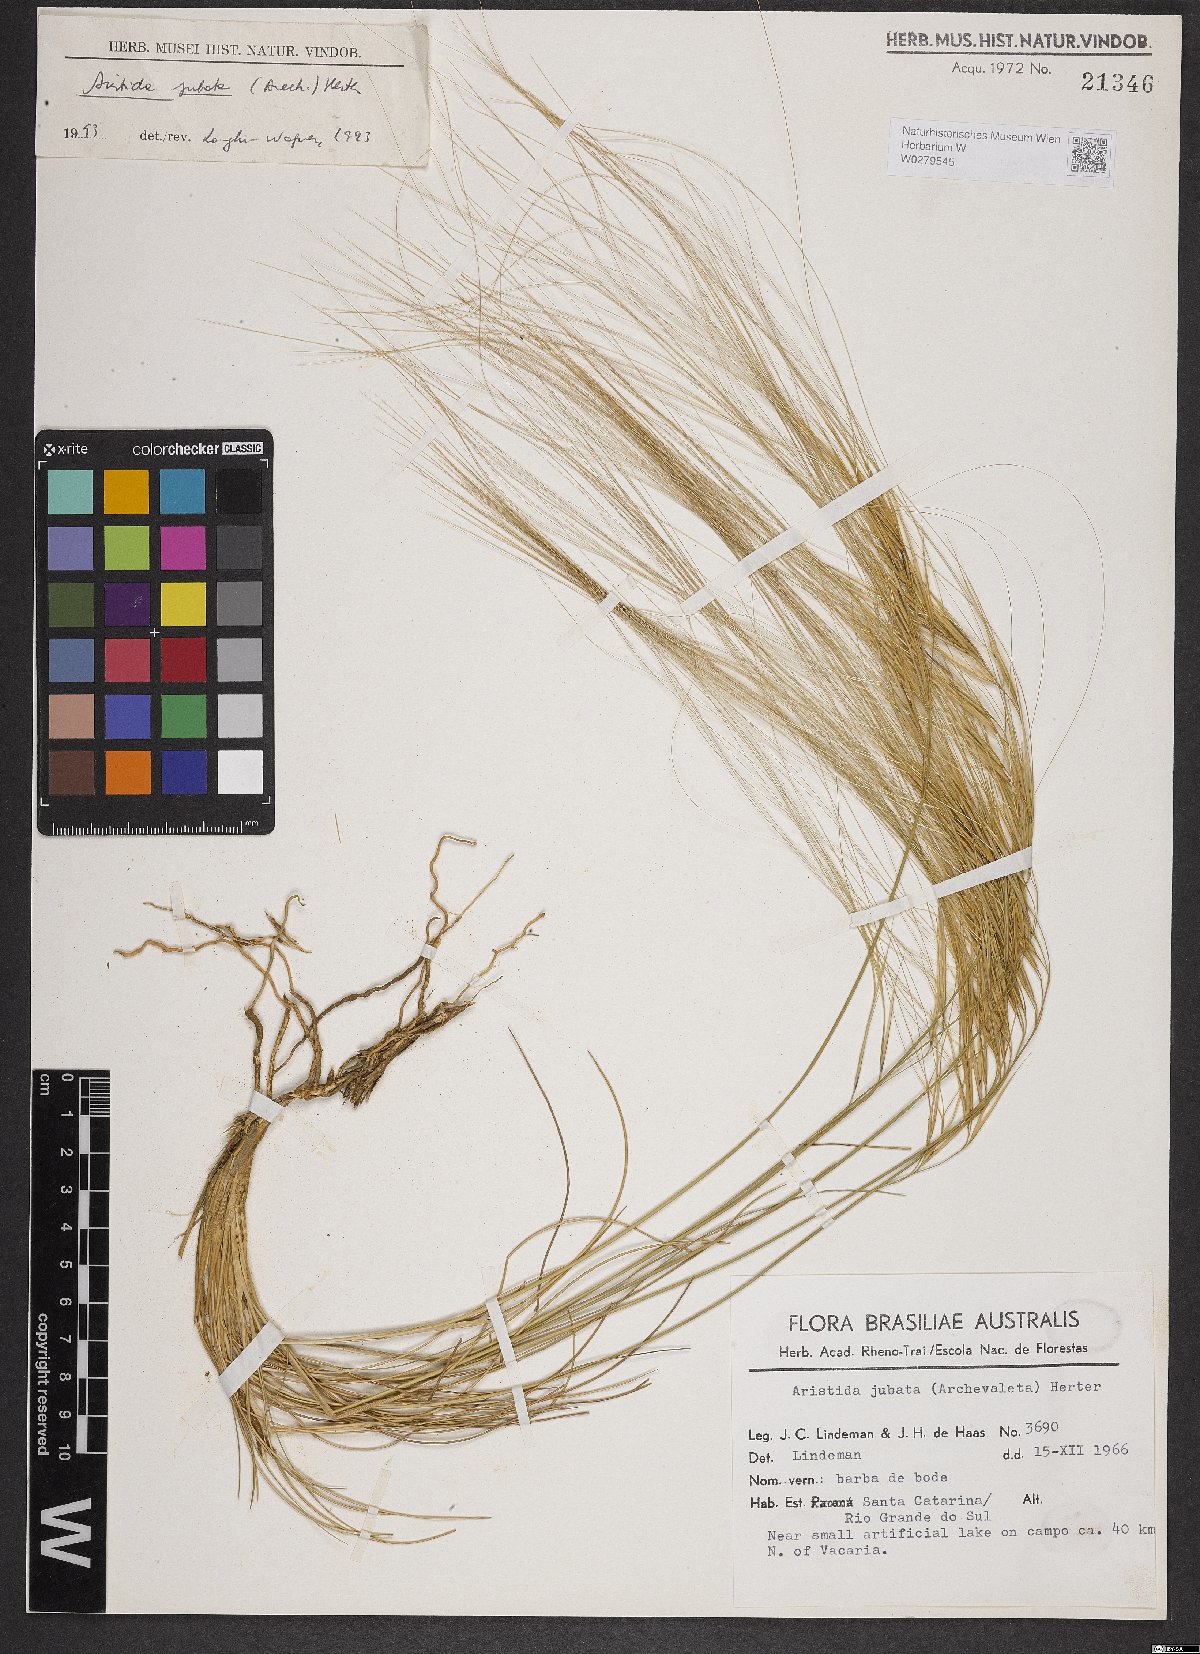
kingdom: Plantae
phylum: Tracheophyta
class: Liliopsida
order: Poales
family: Poaceae
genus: Aristida
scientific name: Aristida jubata
